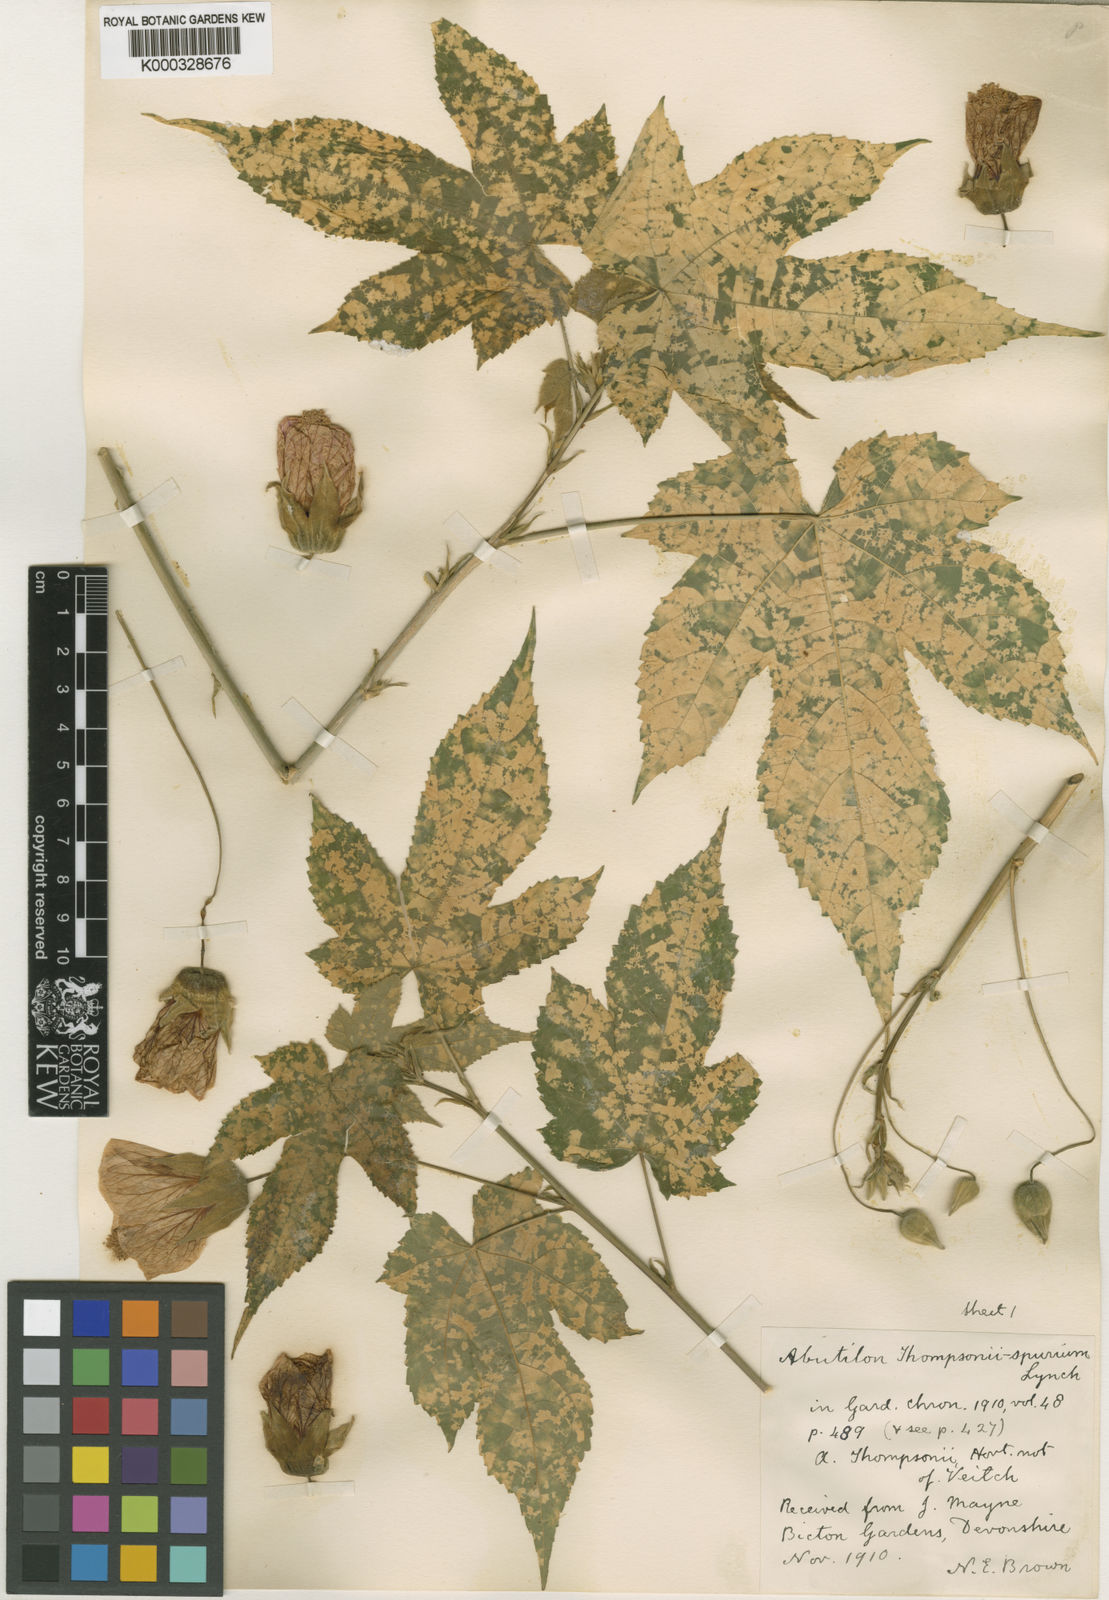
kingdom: Plantae
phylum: Tracheophyta
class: Magnoliopsida
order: Malvales
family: Malvaceae
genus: Abutilon
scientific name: Abutilon
